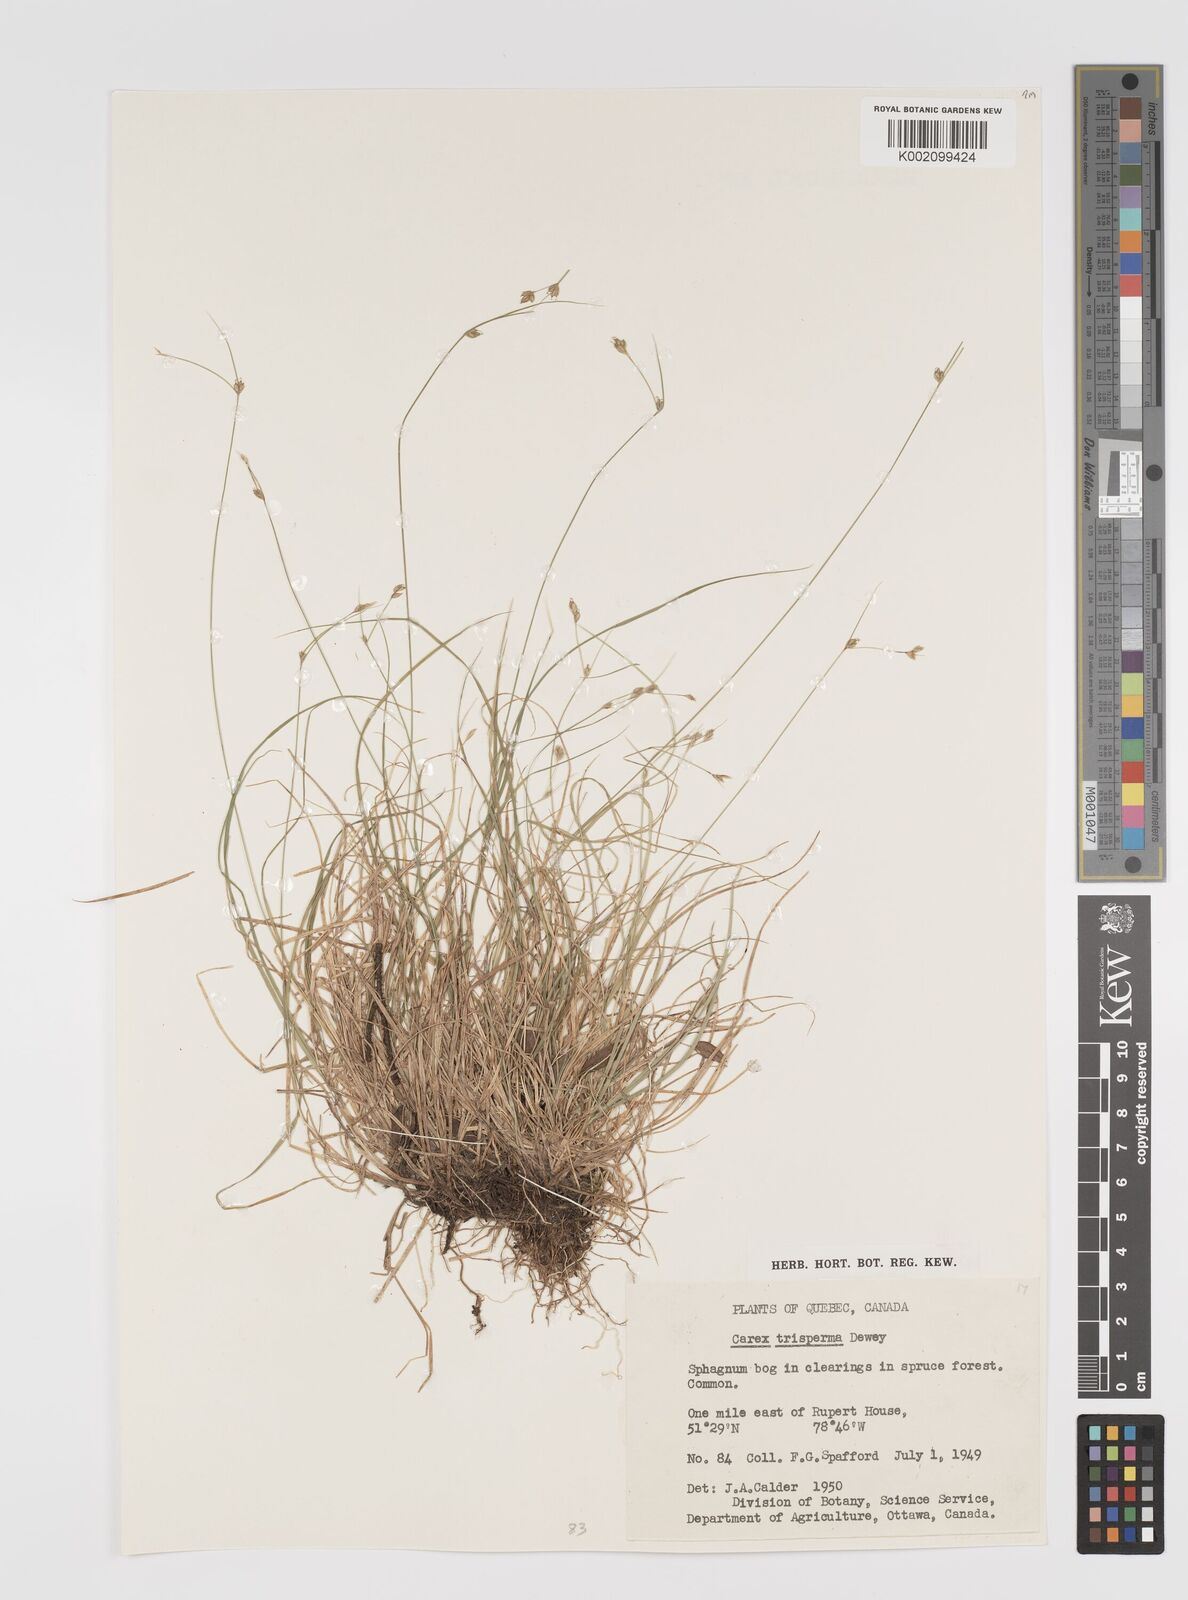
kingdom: Plantae
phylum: Tracheophyta
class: Liliopsida
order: Poales
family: Cyperaceae
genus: Carex
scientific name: Carex trisperma
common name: Three-seeded sedge
